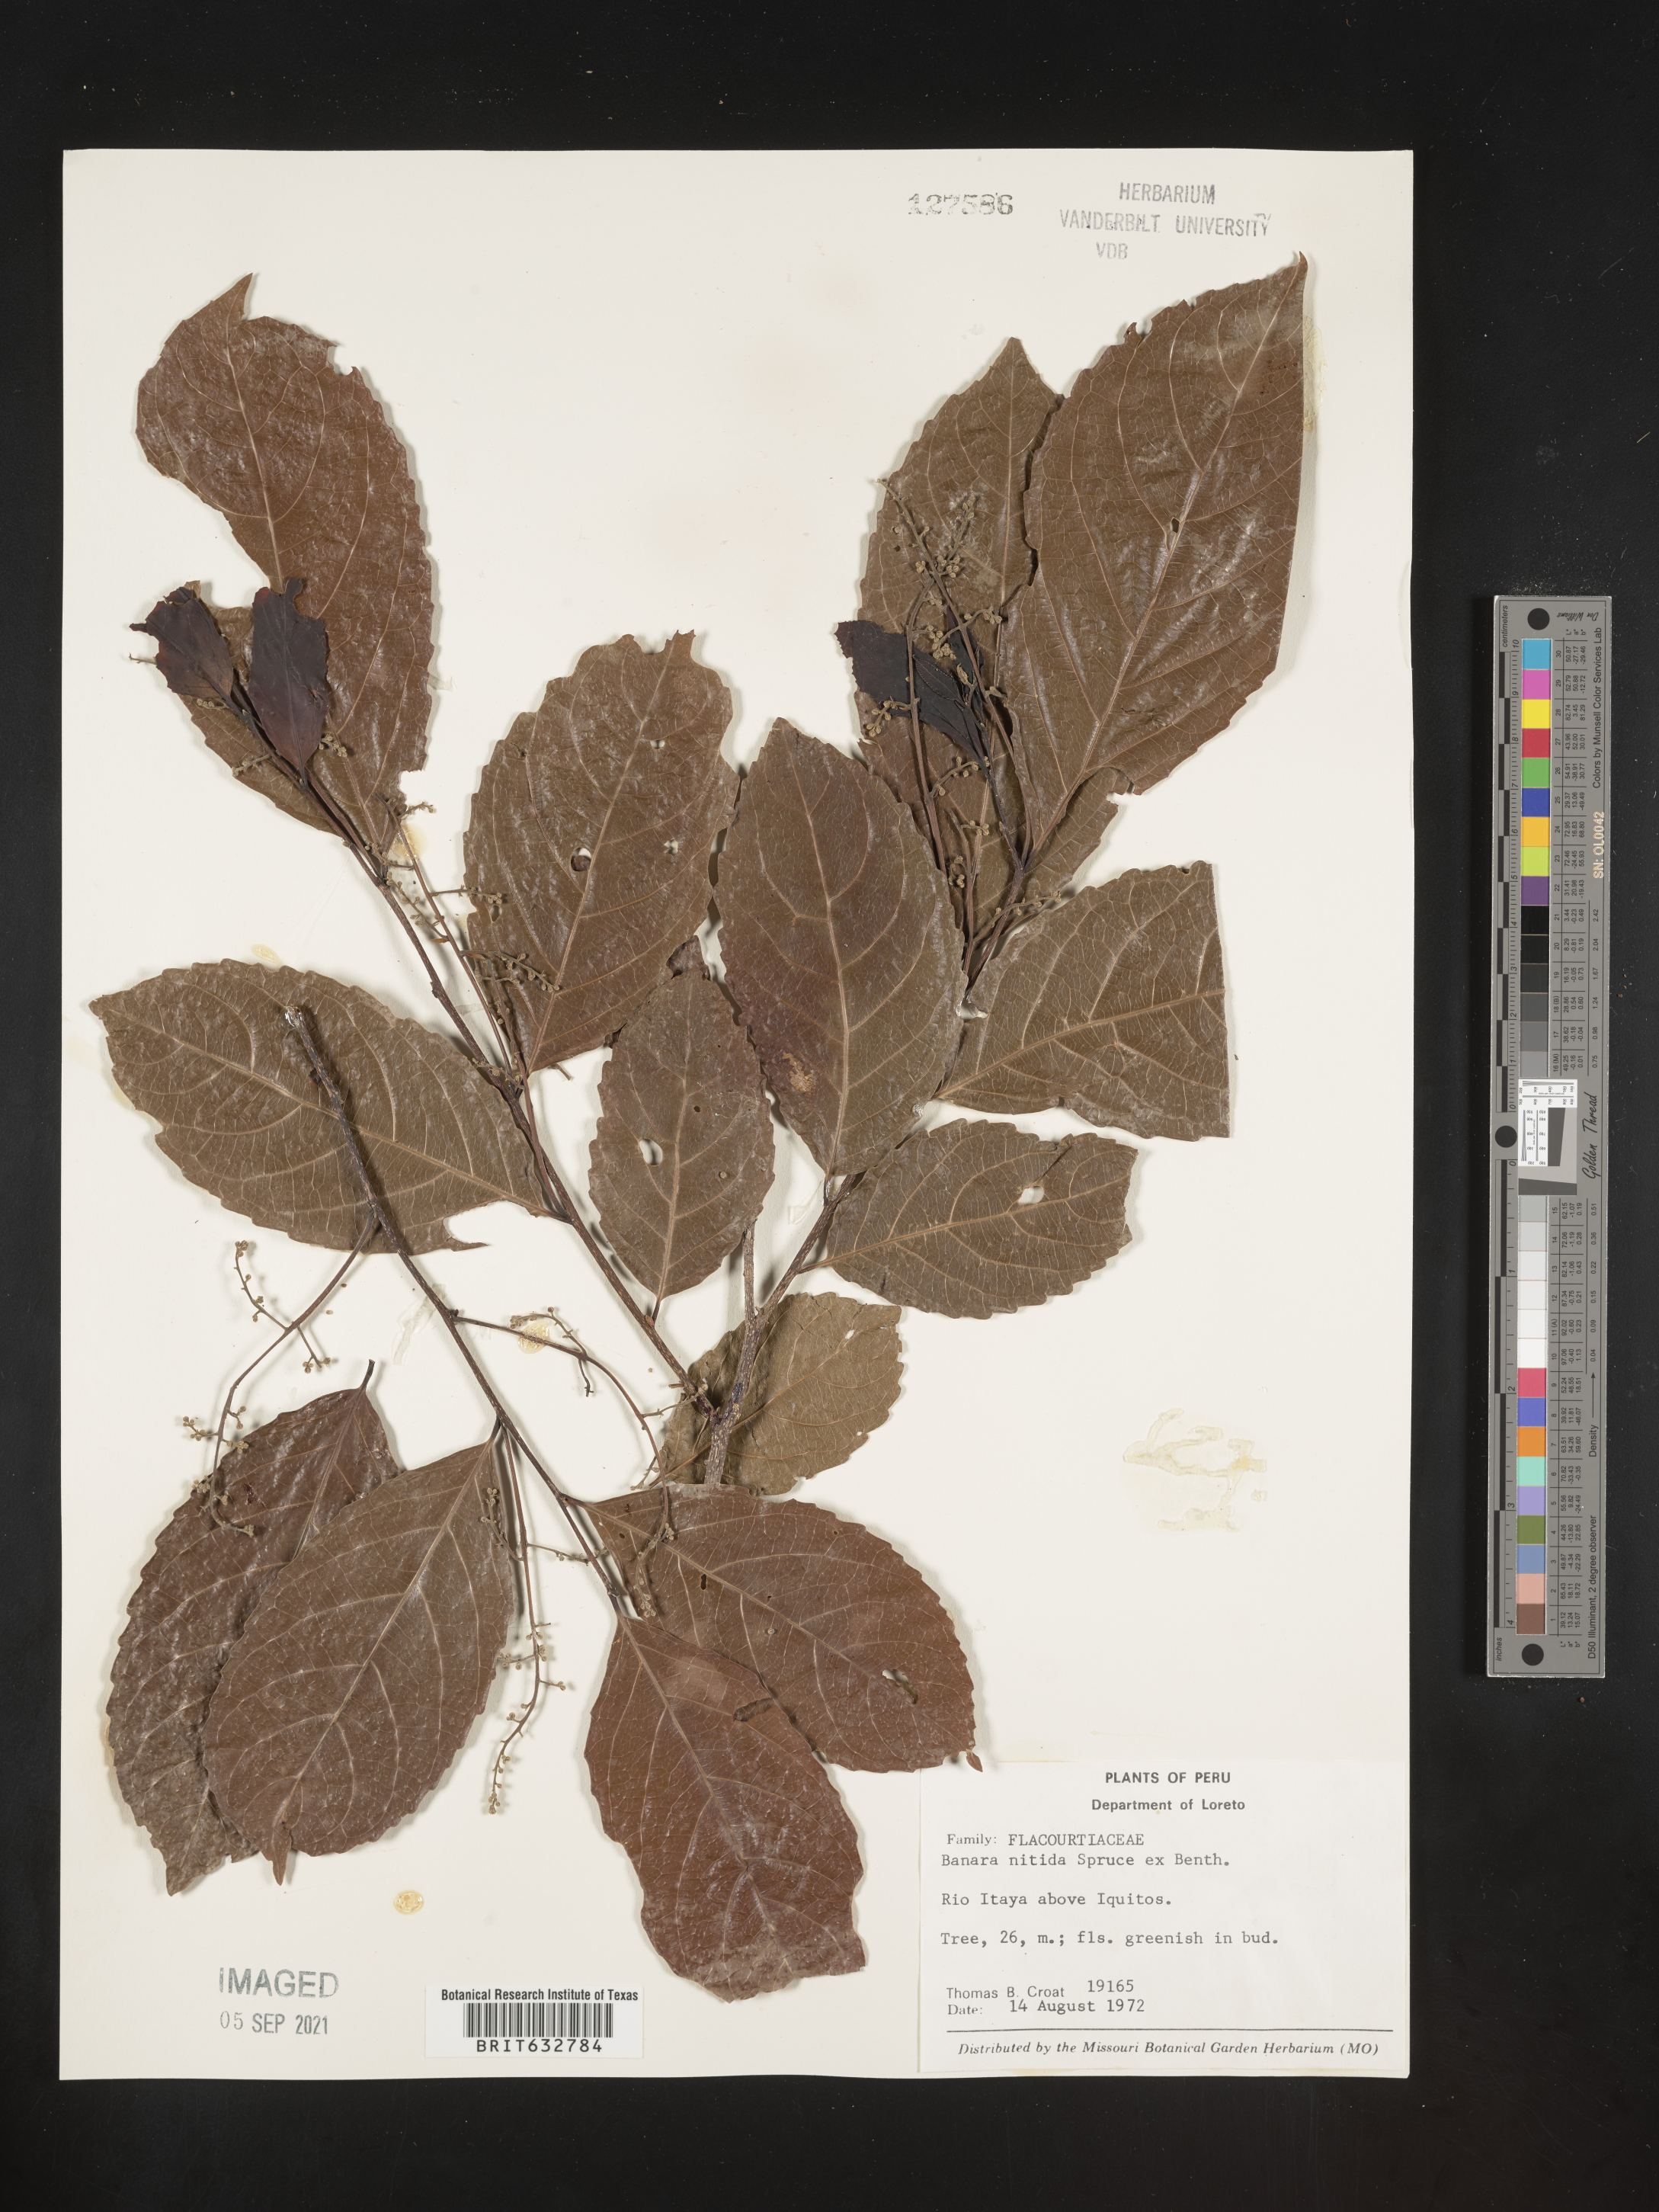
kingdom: Plantae
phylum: Tracheophyta
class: Magnoliopsida
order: Malpighiales
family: Salicaceae
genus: Banara
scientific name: Banara
